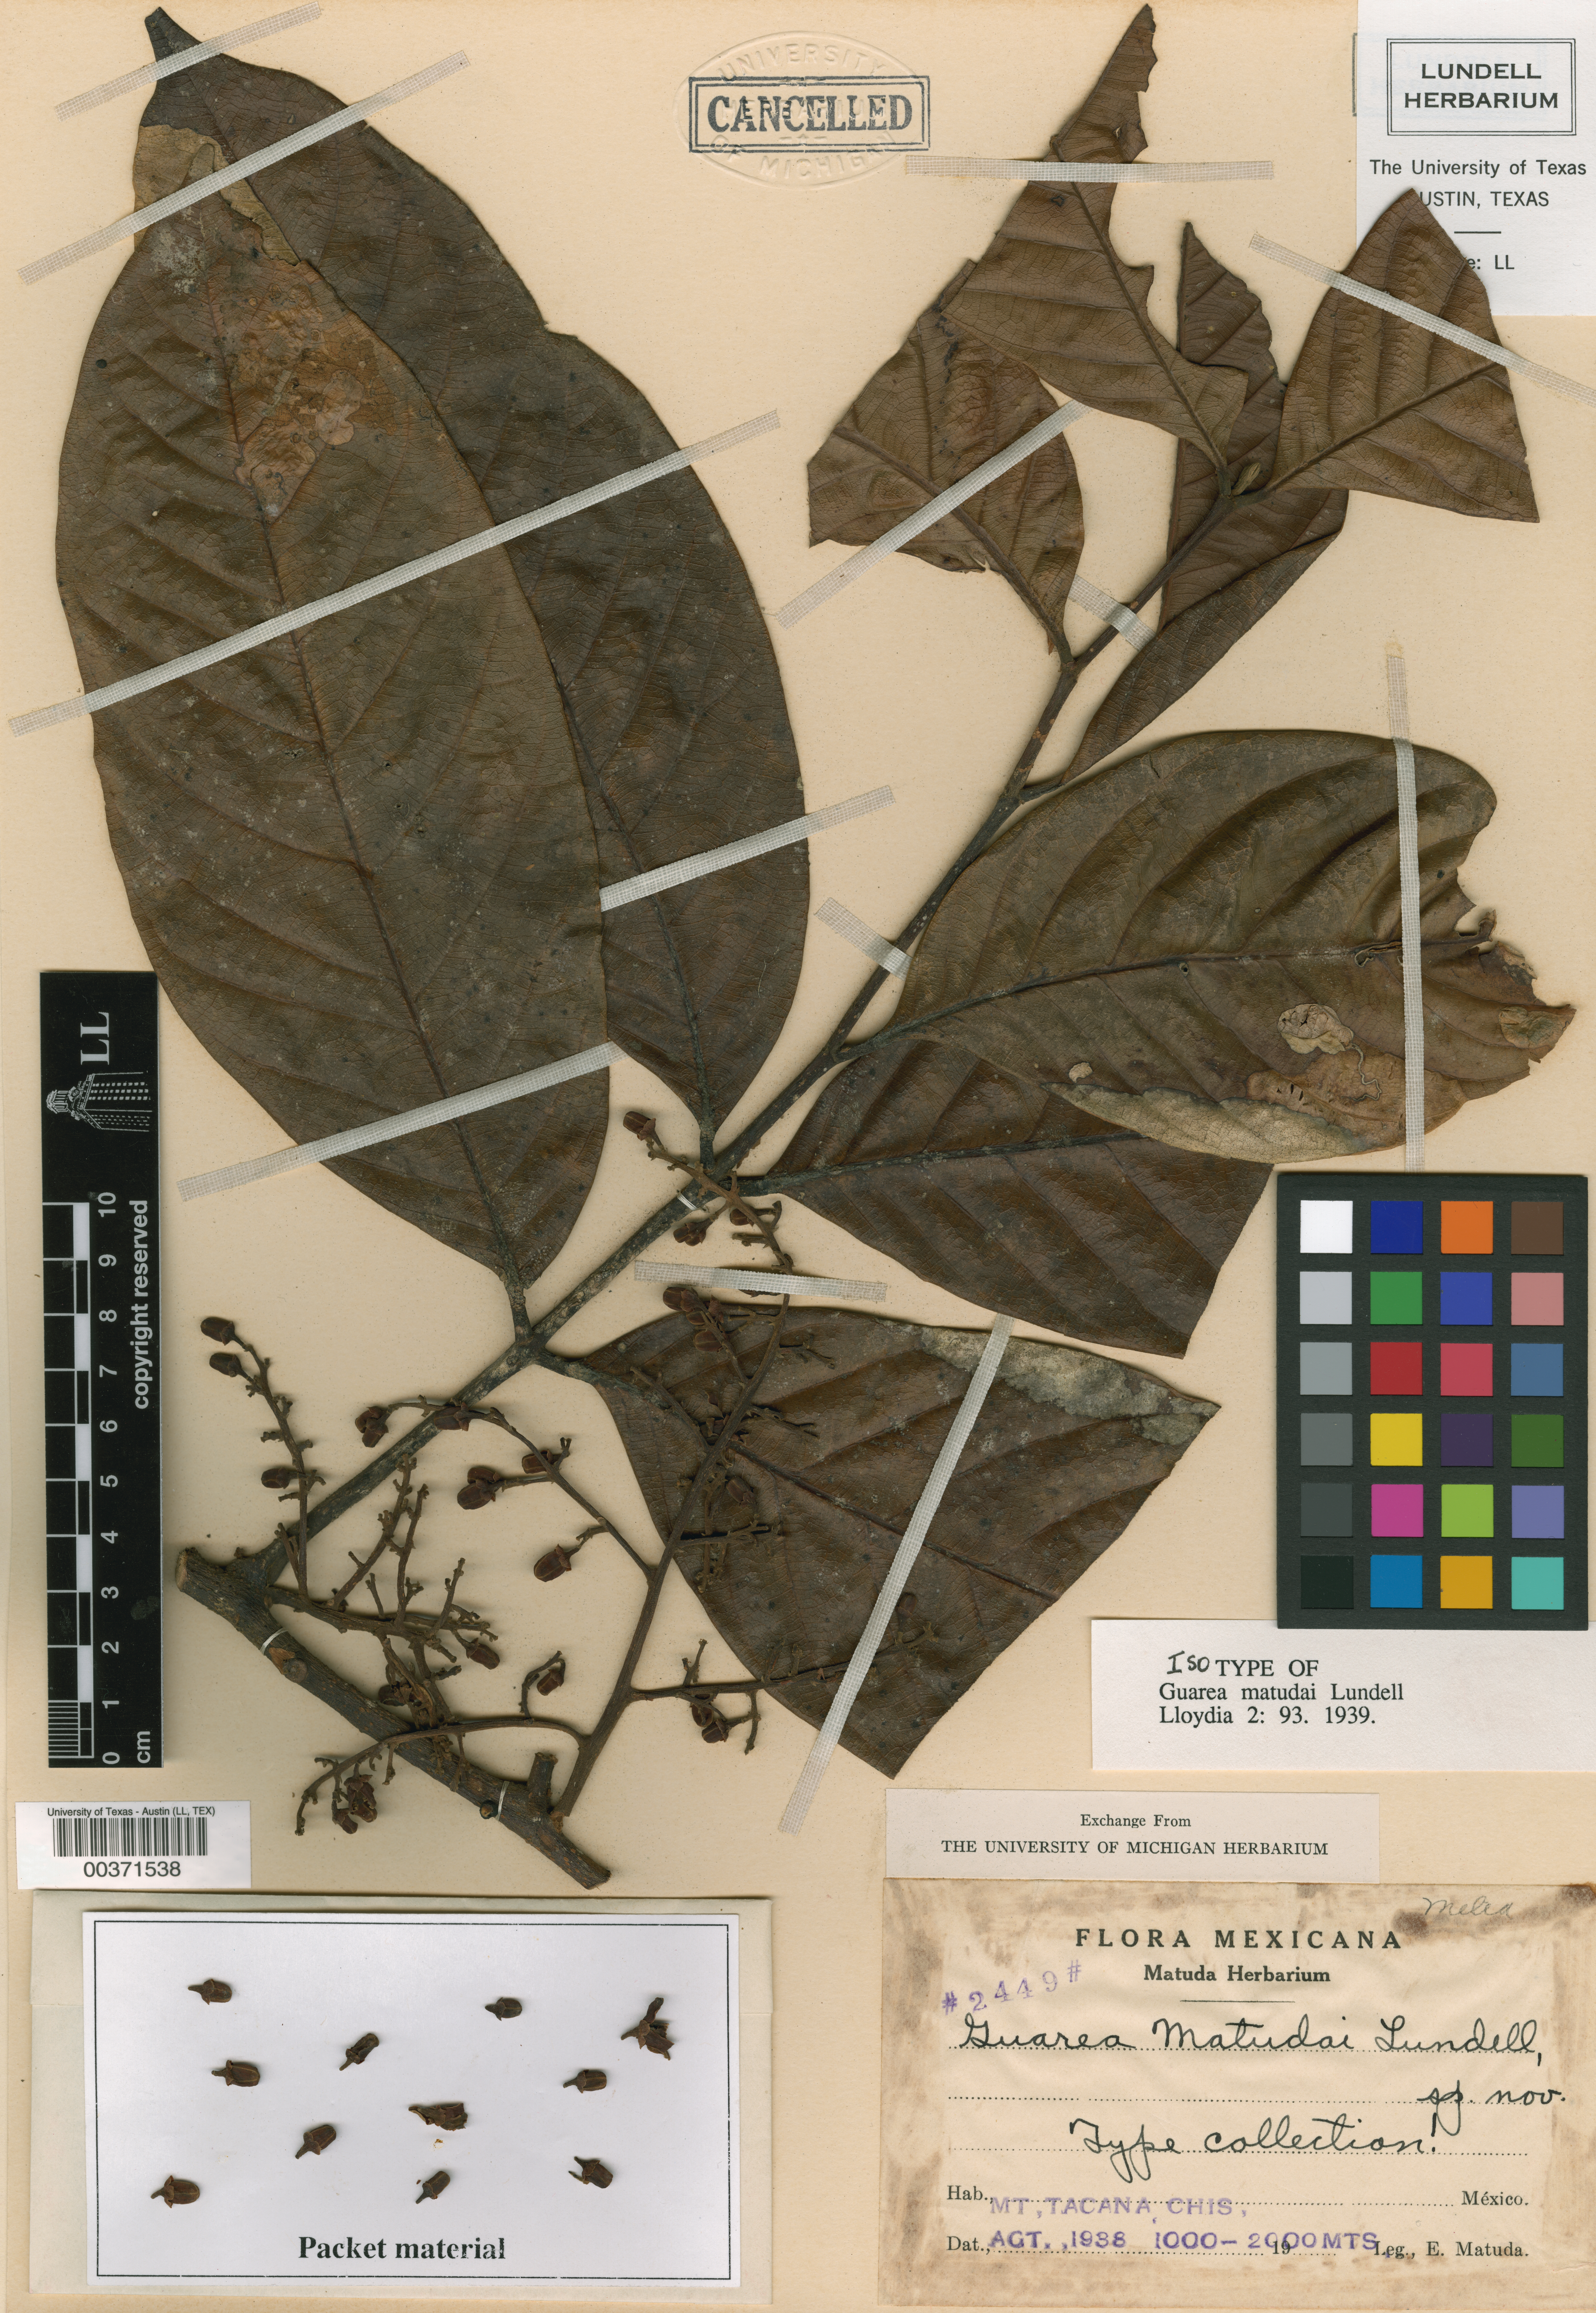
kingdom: Plantae
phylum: Tracheophyta
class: Magnoliopsida
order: Sapindales
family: Meliaceae
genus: Guarea
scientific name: Guarea glabra
